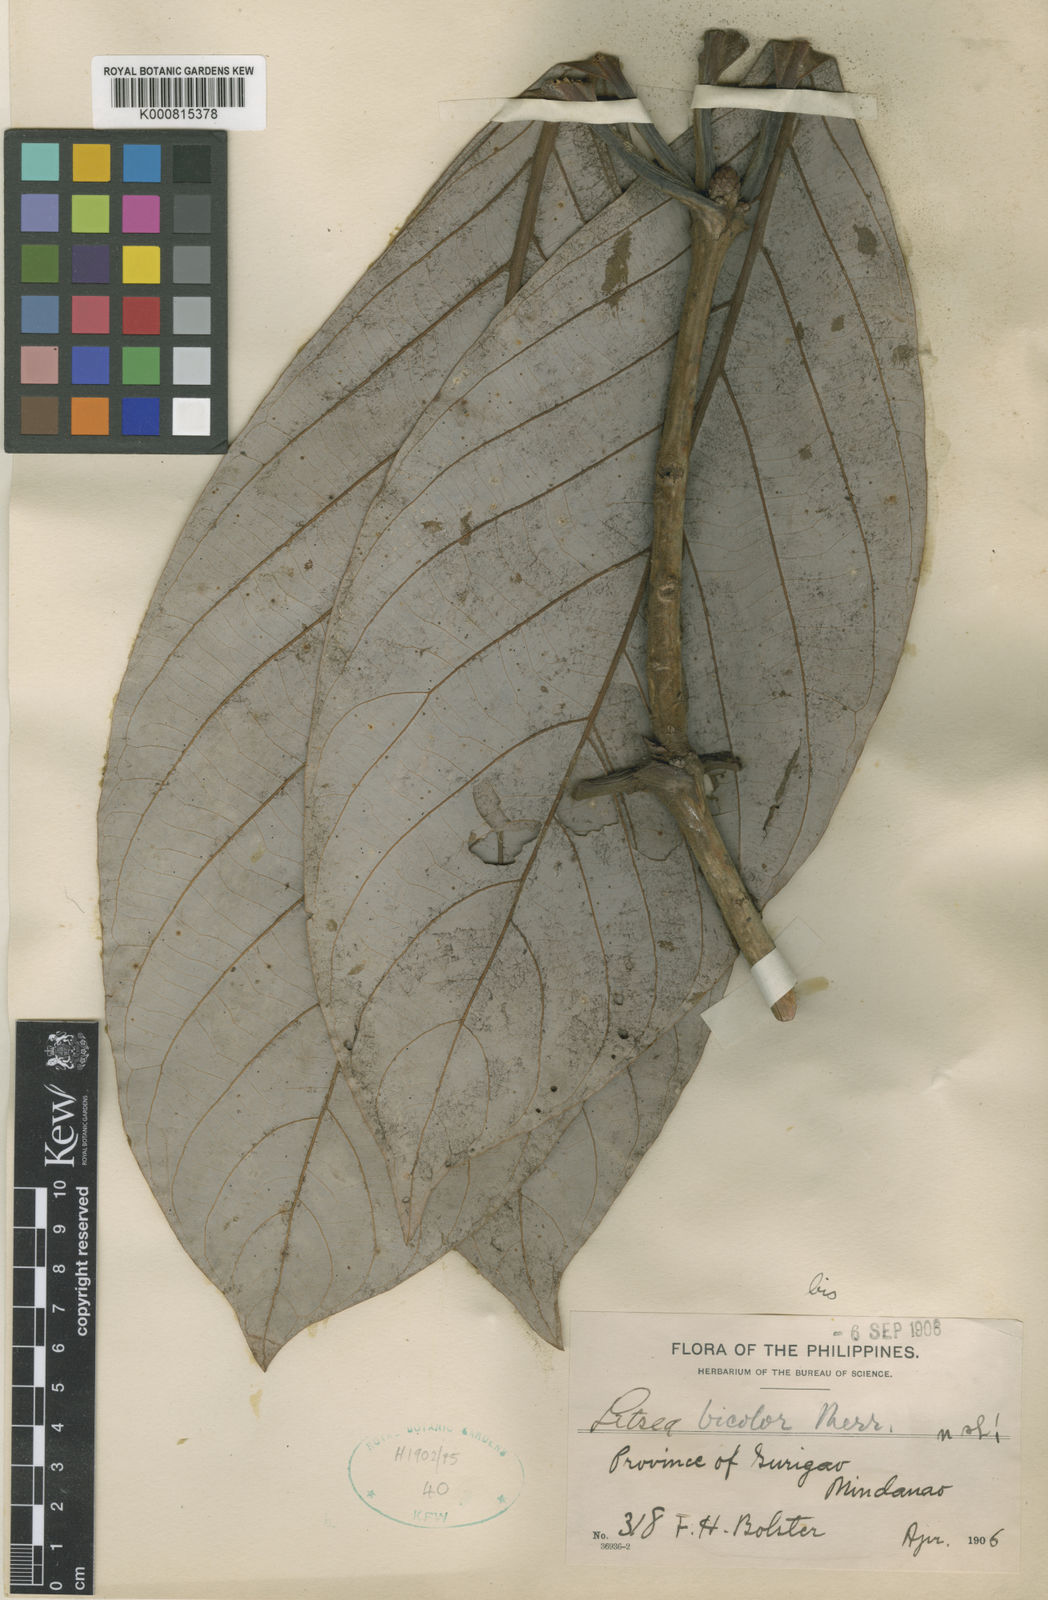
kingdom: Plantae
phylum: Tracheophyta
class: Magnoliopsida
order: Laurales
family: Lauraceae
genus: Actinodaphne
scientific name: Actinodaphne bicolor
